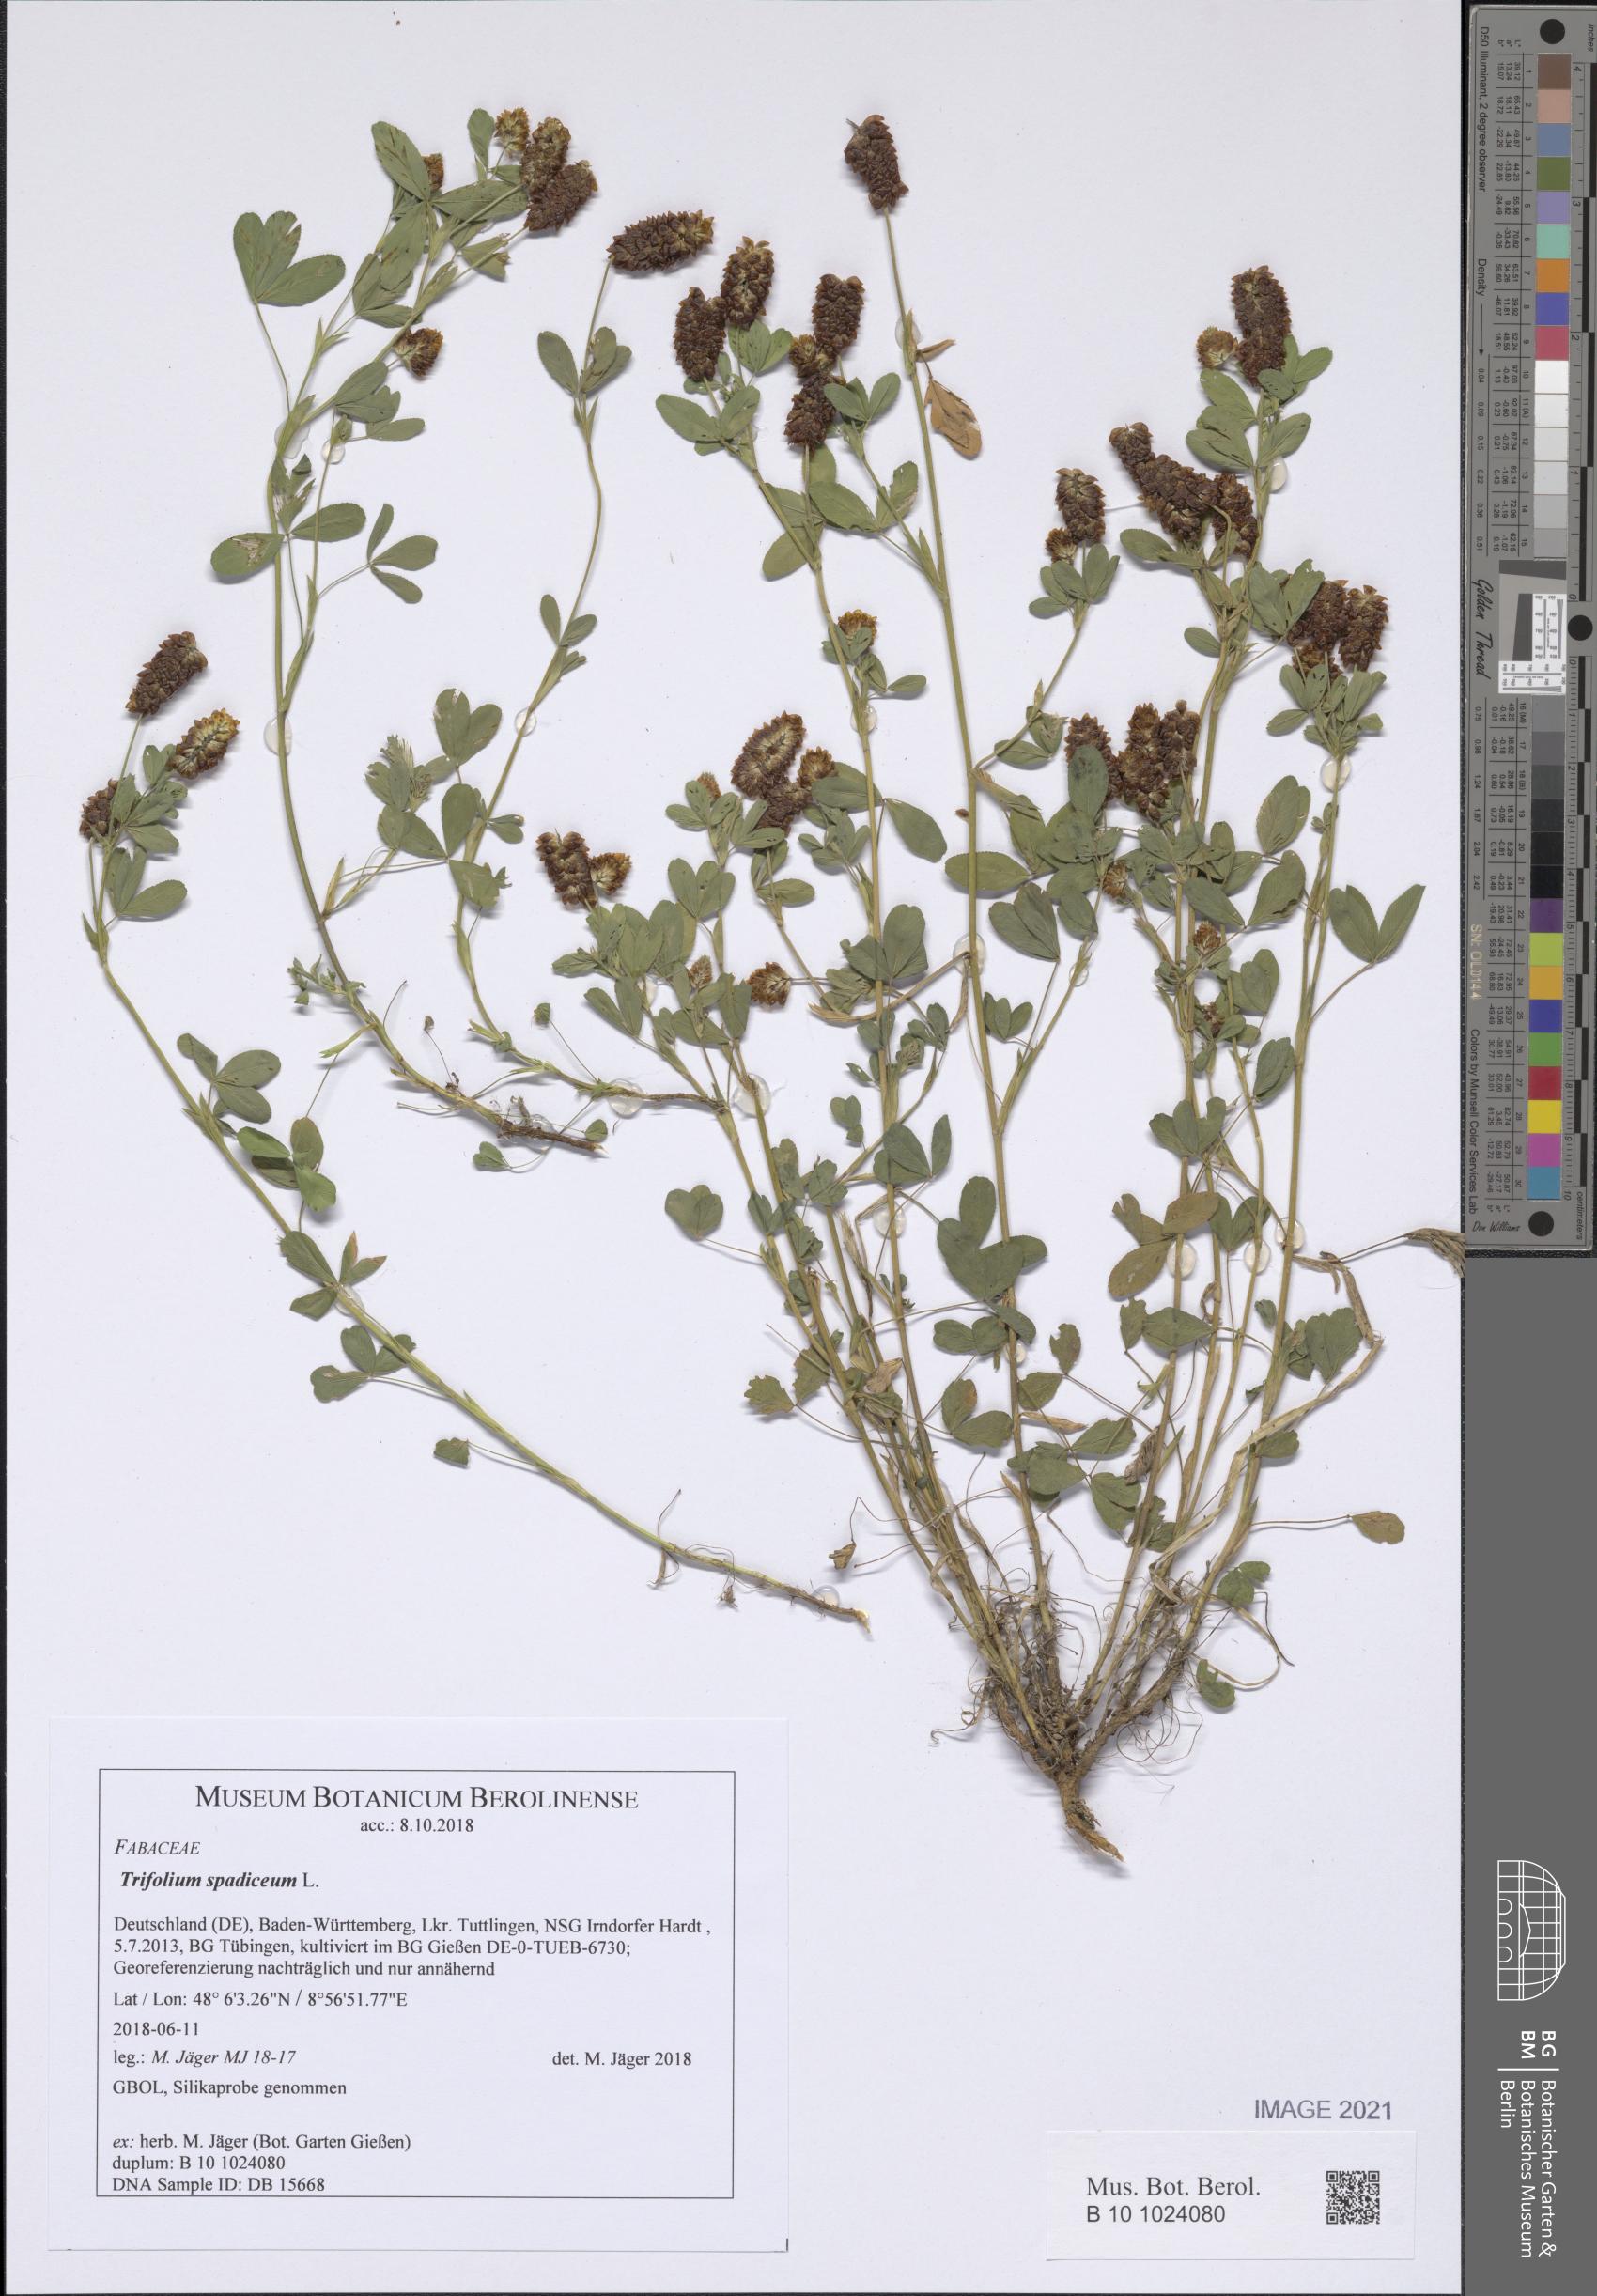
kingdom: Plantae
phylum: Tracheophyta
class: Magnoliopsida
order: Fabales
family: Fabaceae
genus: Trifolium
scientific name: Trifolium spadiceum
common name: Brown moor clover
